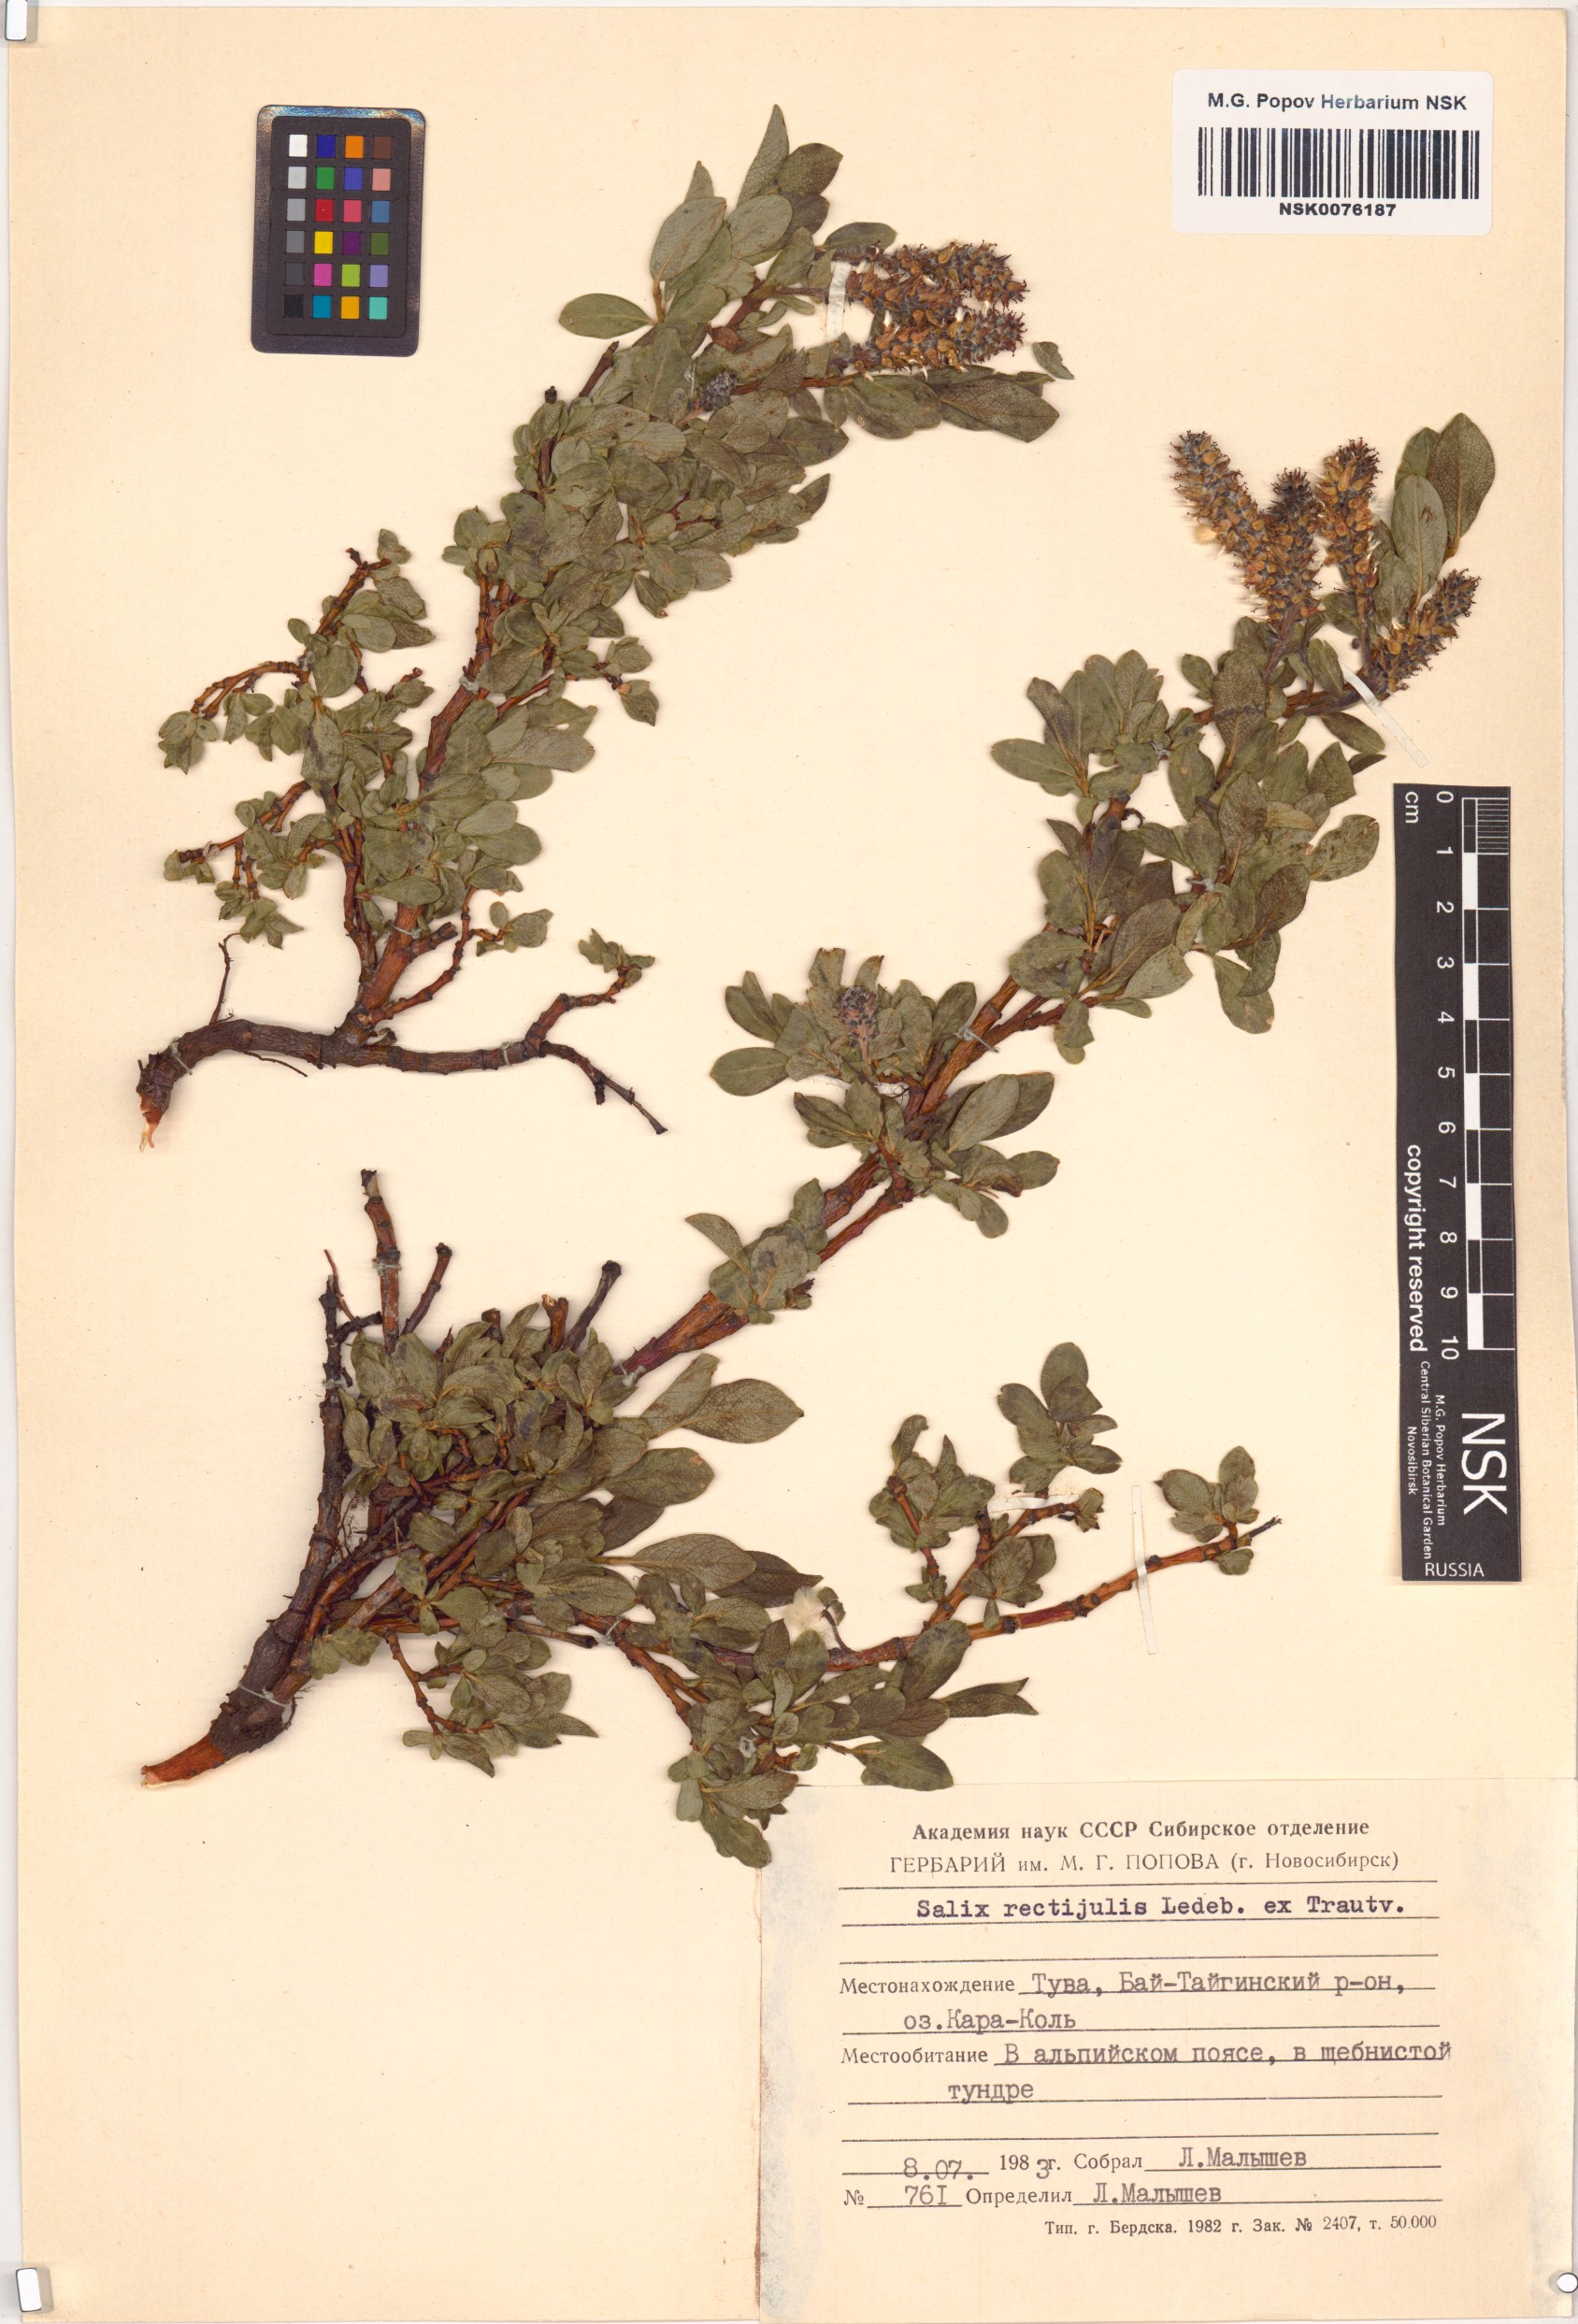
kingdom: Plantae
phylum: Tracheophyta
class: Magnoliopsida
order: Malpighiales
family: Salicaceae
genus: Salix
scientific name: Salix rectijulis
